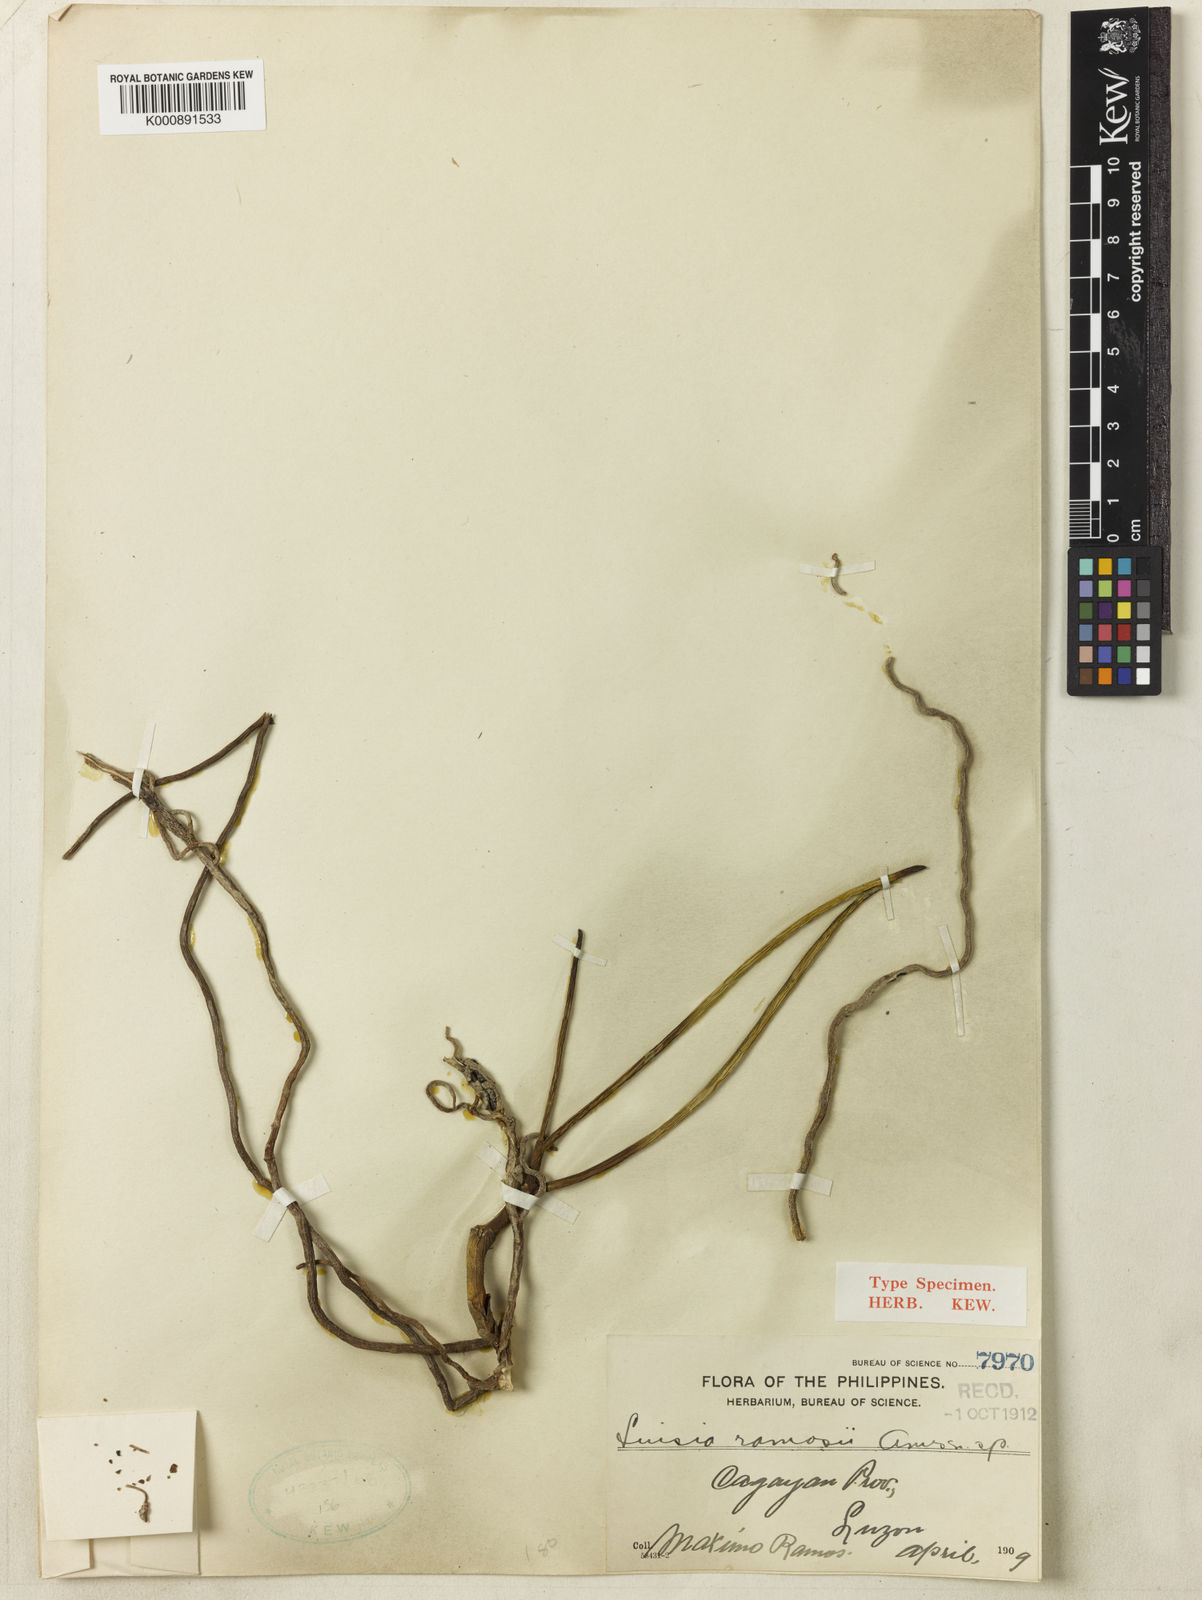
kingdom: Plantae
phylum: Tracheophyta
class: Liliopsida
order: Asparagales
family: Orchidaceae
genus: Luisia
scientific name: Luisia ramosii
